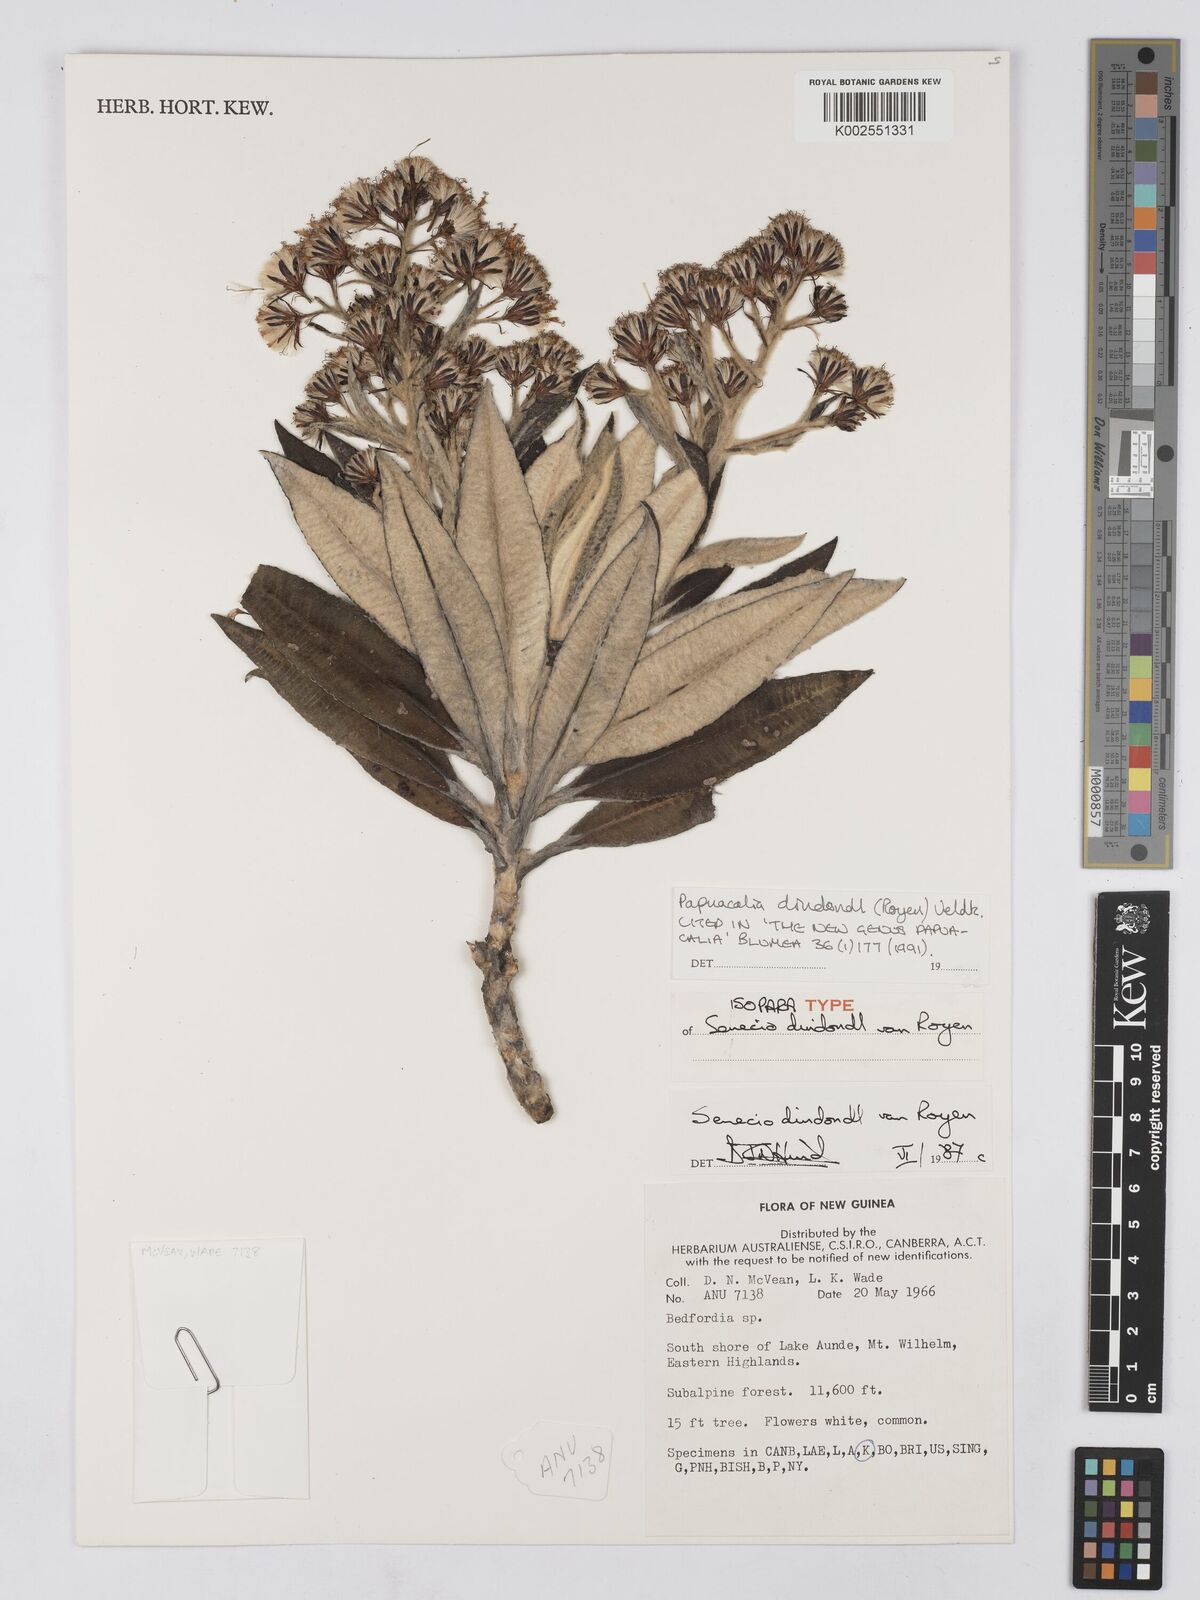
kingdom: Plantae
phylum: Tracheophyta
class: Magnoliopsida
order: Asterales
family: Asteraceae
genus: Papuacalia
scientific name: Papuacalia dindondl
